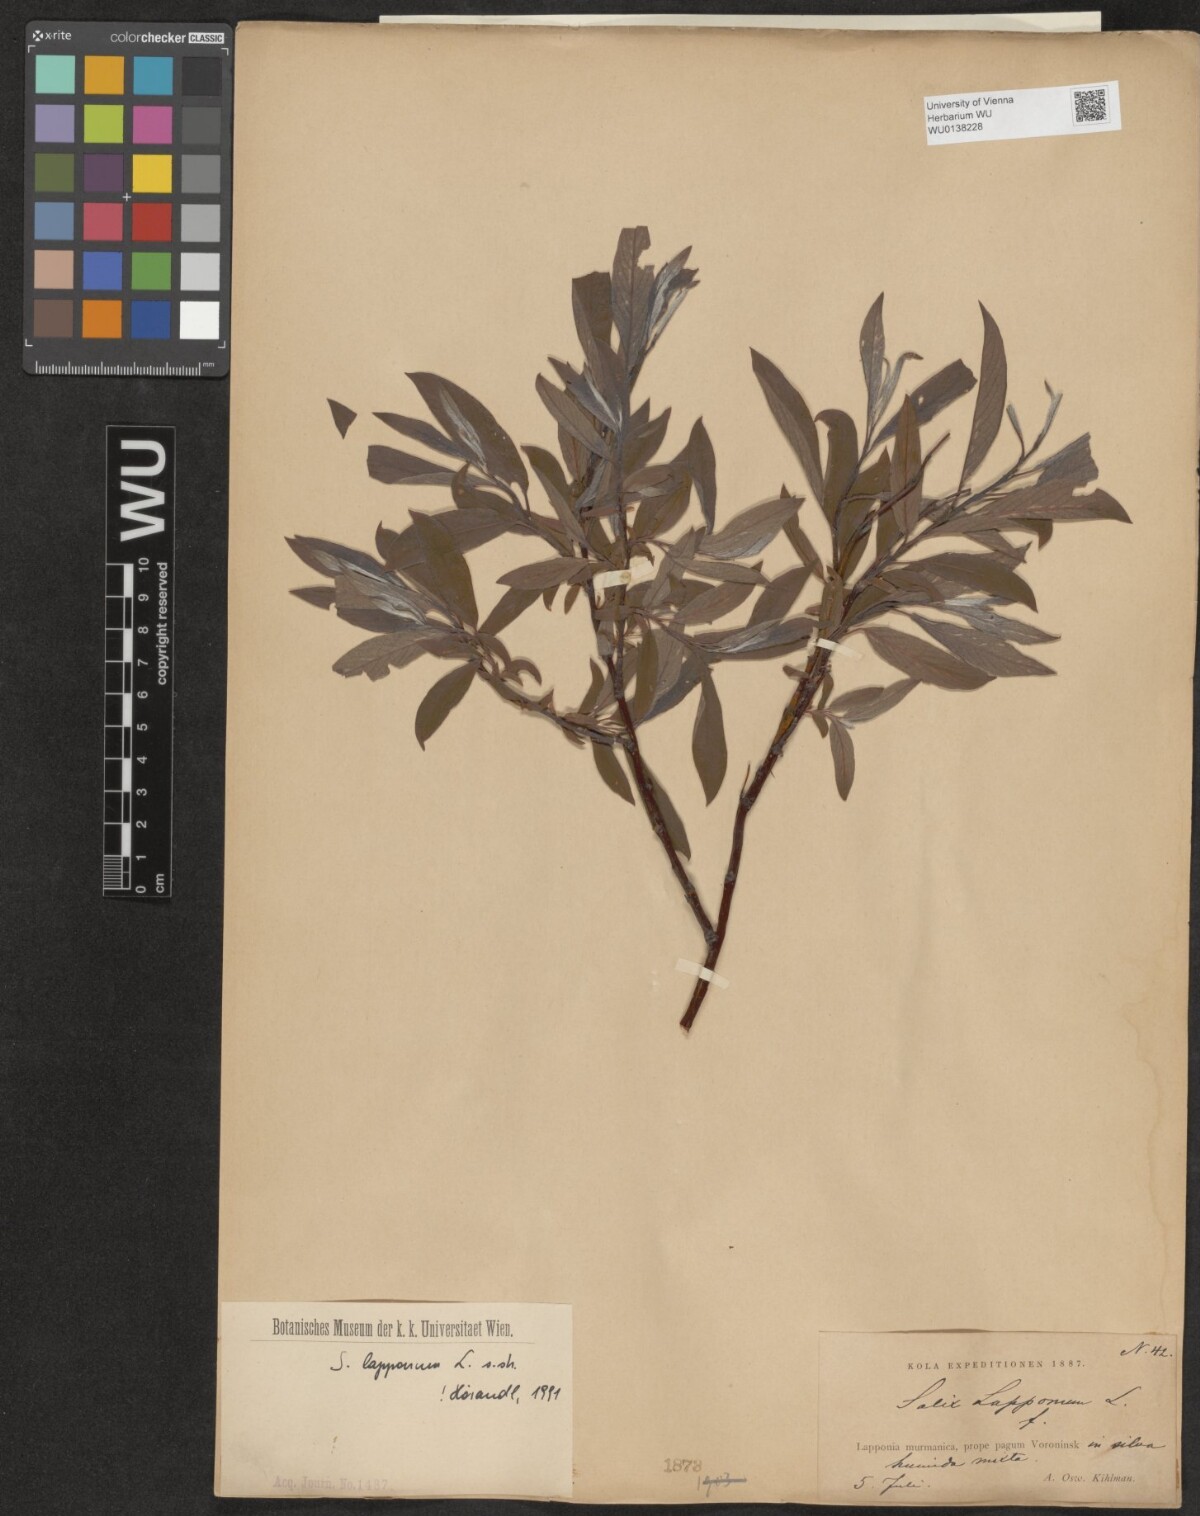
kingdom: Plantae
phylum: Tracheophyta
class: Magnoliopsida
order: Malpighiales
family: Salicaceae
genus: Salix
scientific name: Salix lapponum
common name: Downy willow
